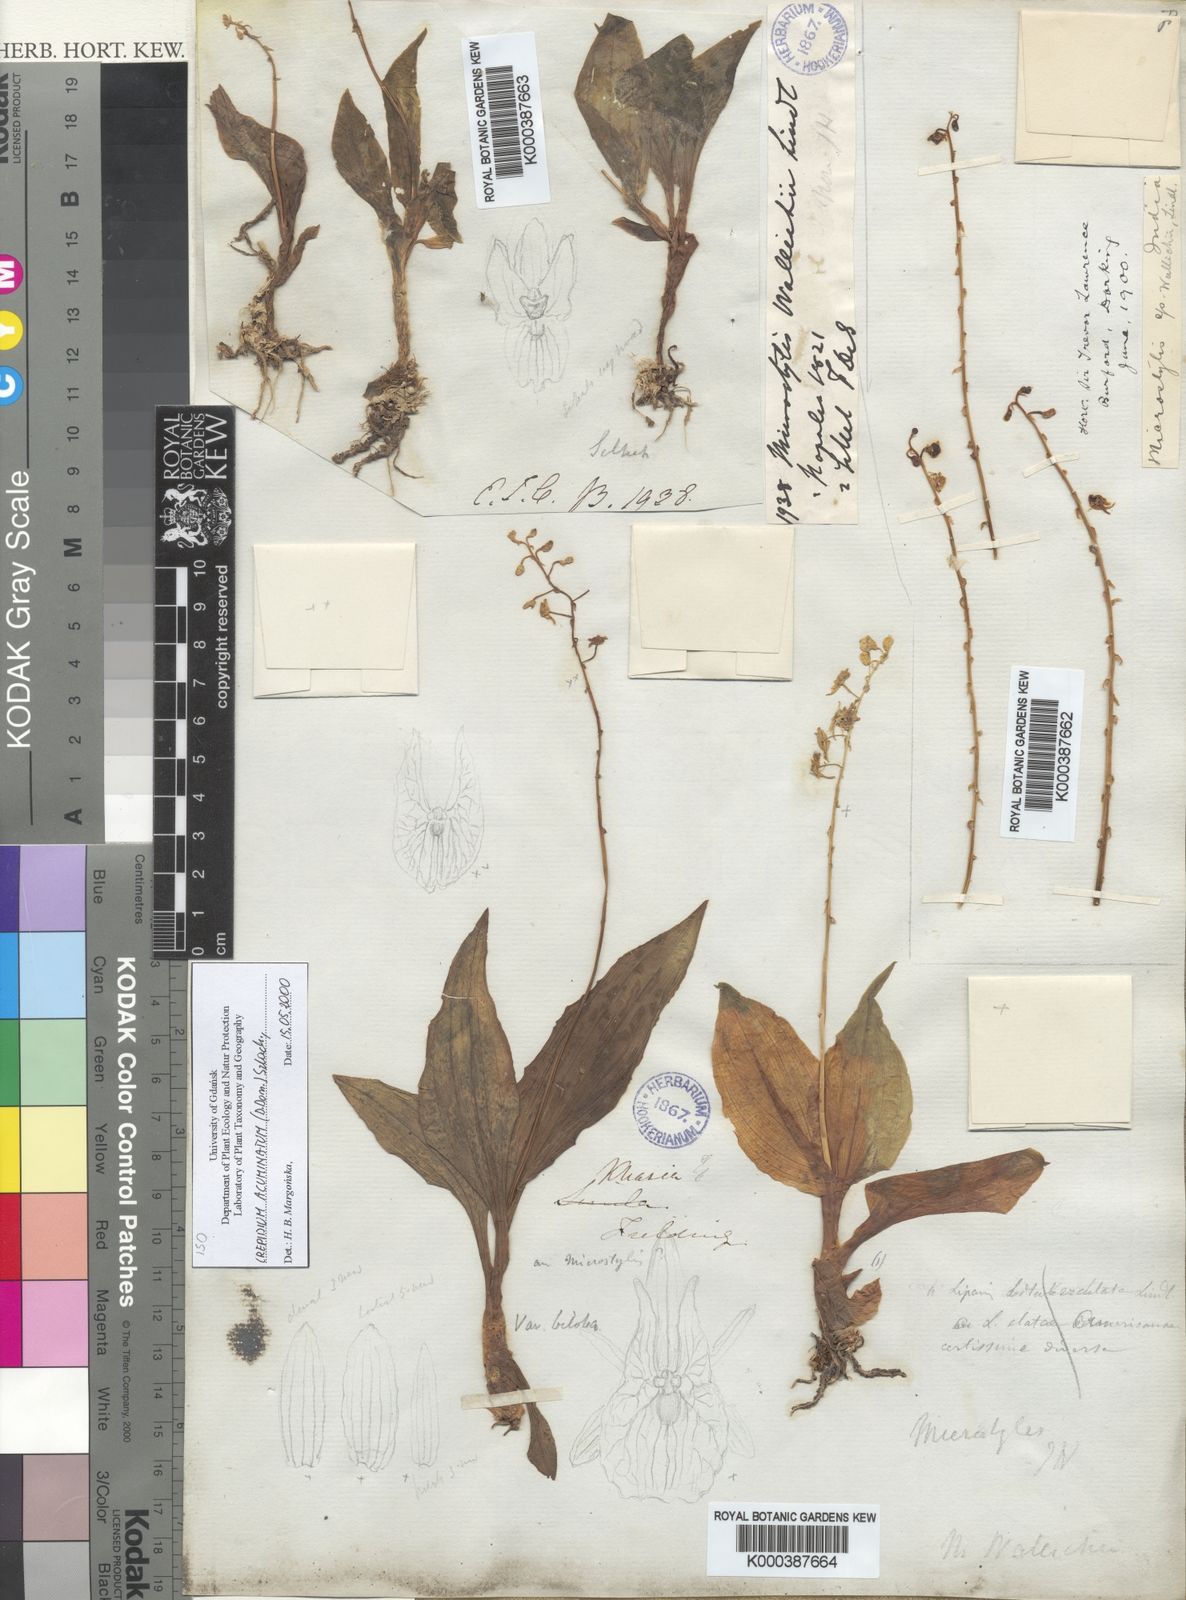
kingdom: Plantae
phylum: Tracheophyta
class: Liliopsida
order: Asparagales
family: Orchidaceae
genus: Crepidium
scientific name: Crepidium acuminatum
